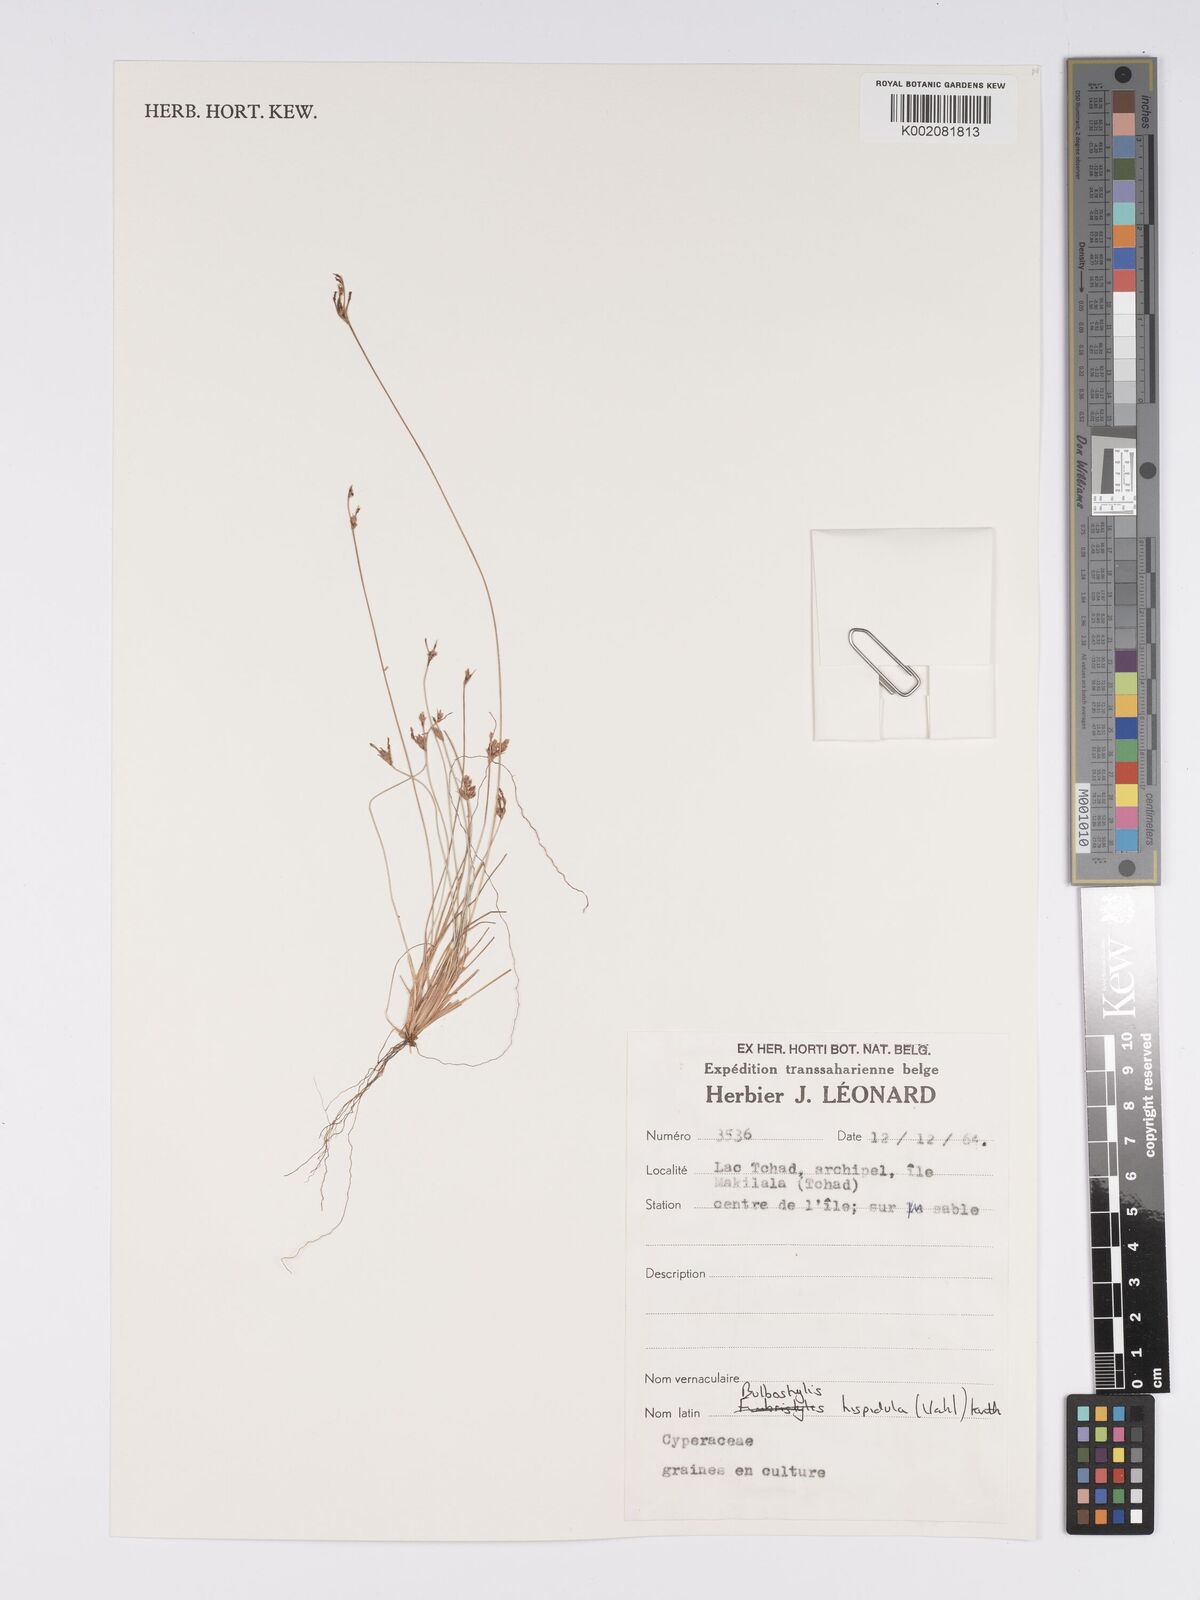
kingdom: Plantae
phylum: Tracheophyta
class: Liliopsida
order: Poales
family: Cyperaceae
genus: Bulbostylis
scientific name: Bulbostylis hispidula
